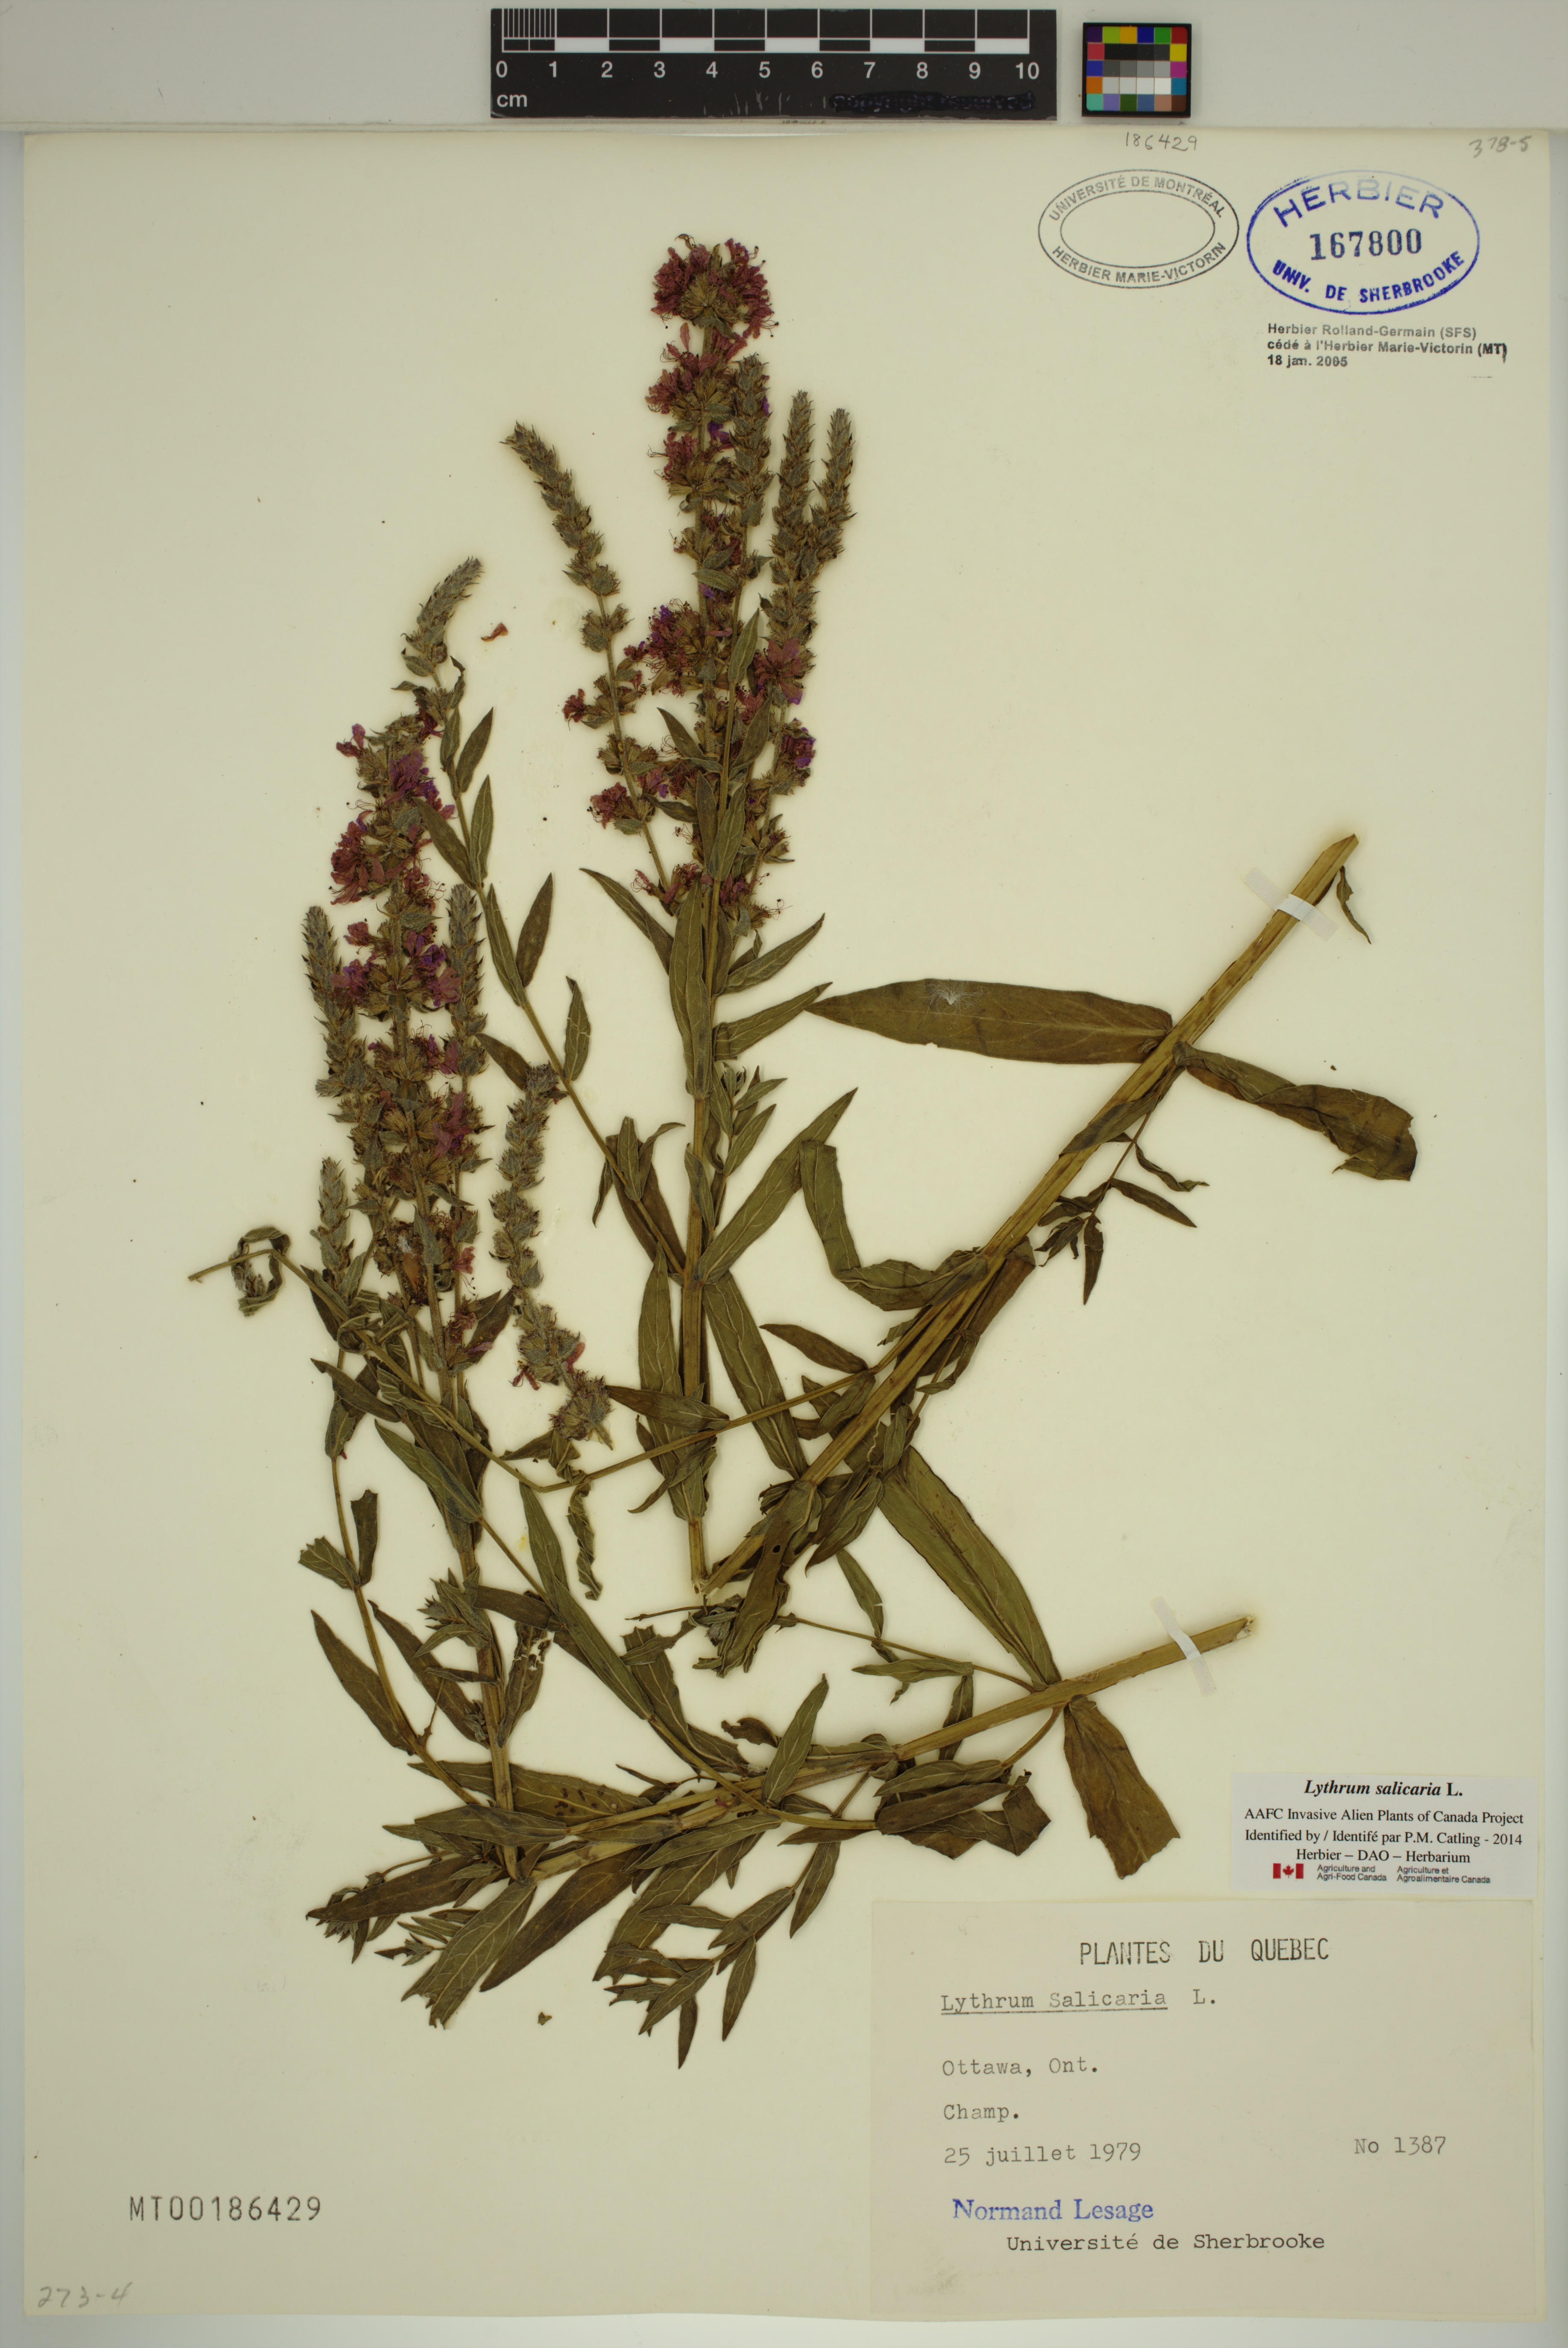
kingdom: Plantae
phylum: Tracheophyta
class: Magnoliopsida
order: Myrtales
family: Lythraceae
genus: Lythrum
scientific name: Lythrum salicaria
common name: Purple loosestrife
